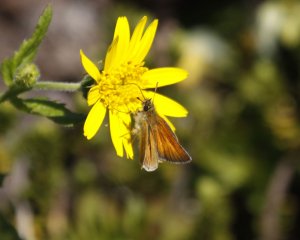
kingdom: Animalia
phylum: Arthropoda
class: Insecta
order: Lepidoptera
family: Hesperiidae
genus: Thymelicus
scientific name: Thymelicus lineola
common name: European Skipper
